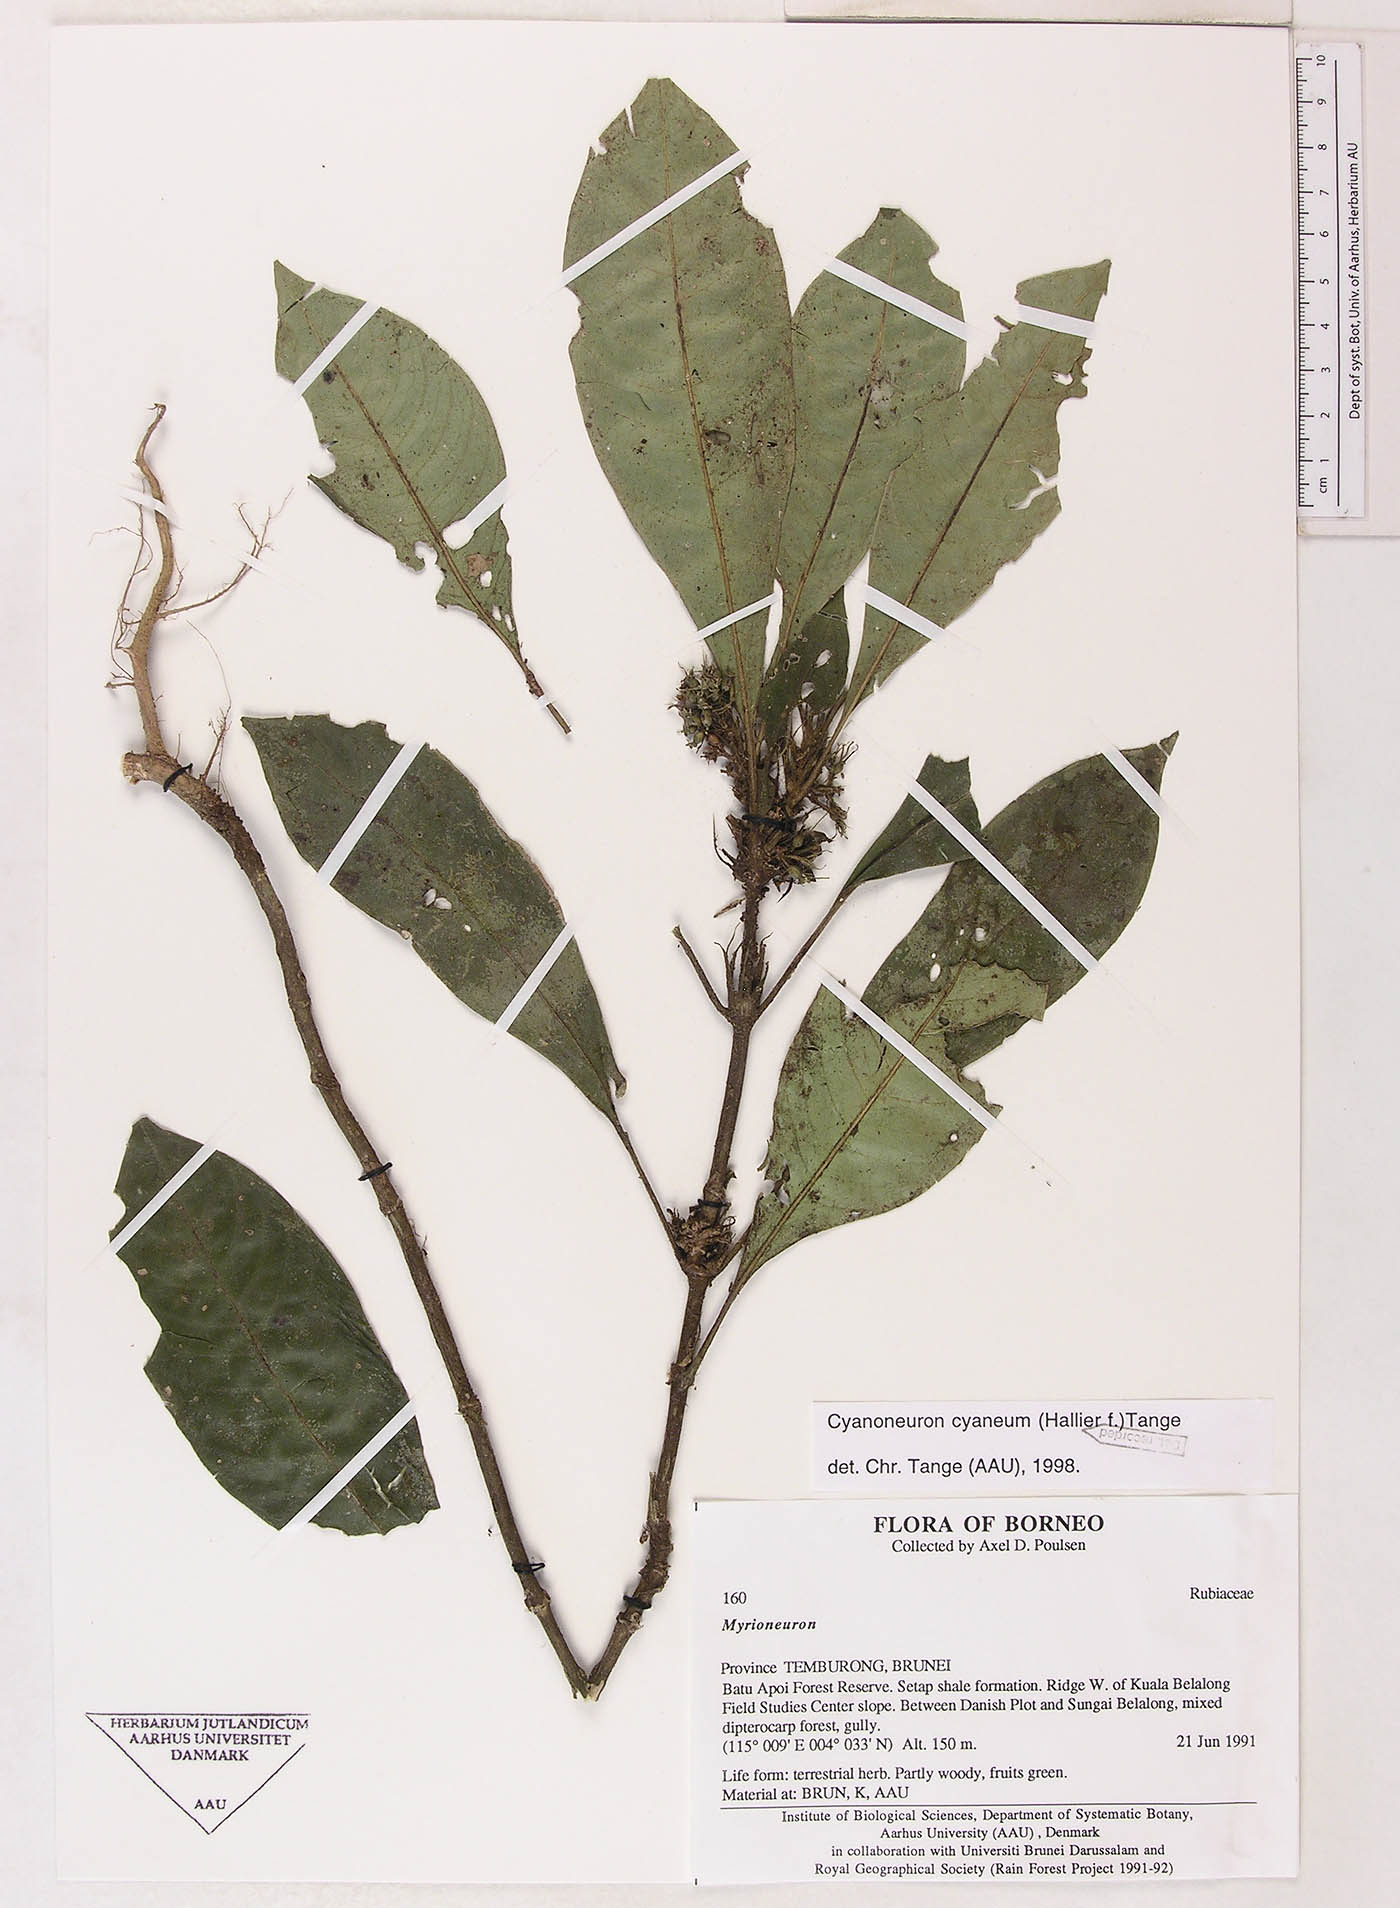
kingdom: Plantae
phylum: Tracheophyta
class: Magnoliopsida
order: Gentianales
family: Rubiaceae
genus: Cyanoneuron
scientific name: Cyanoneuron cyaneum
